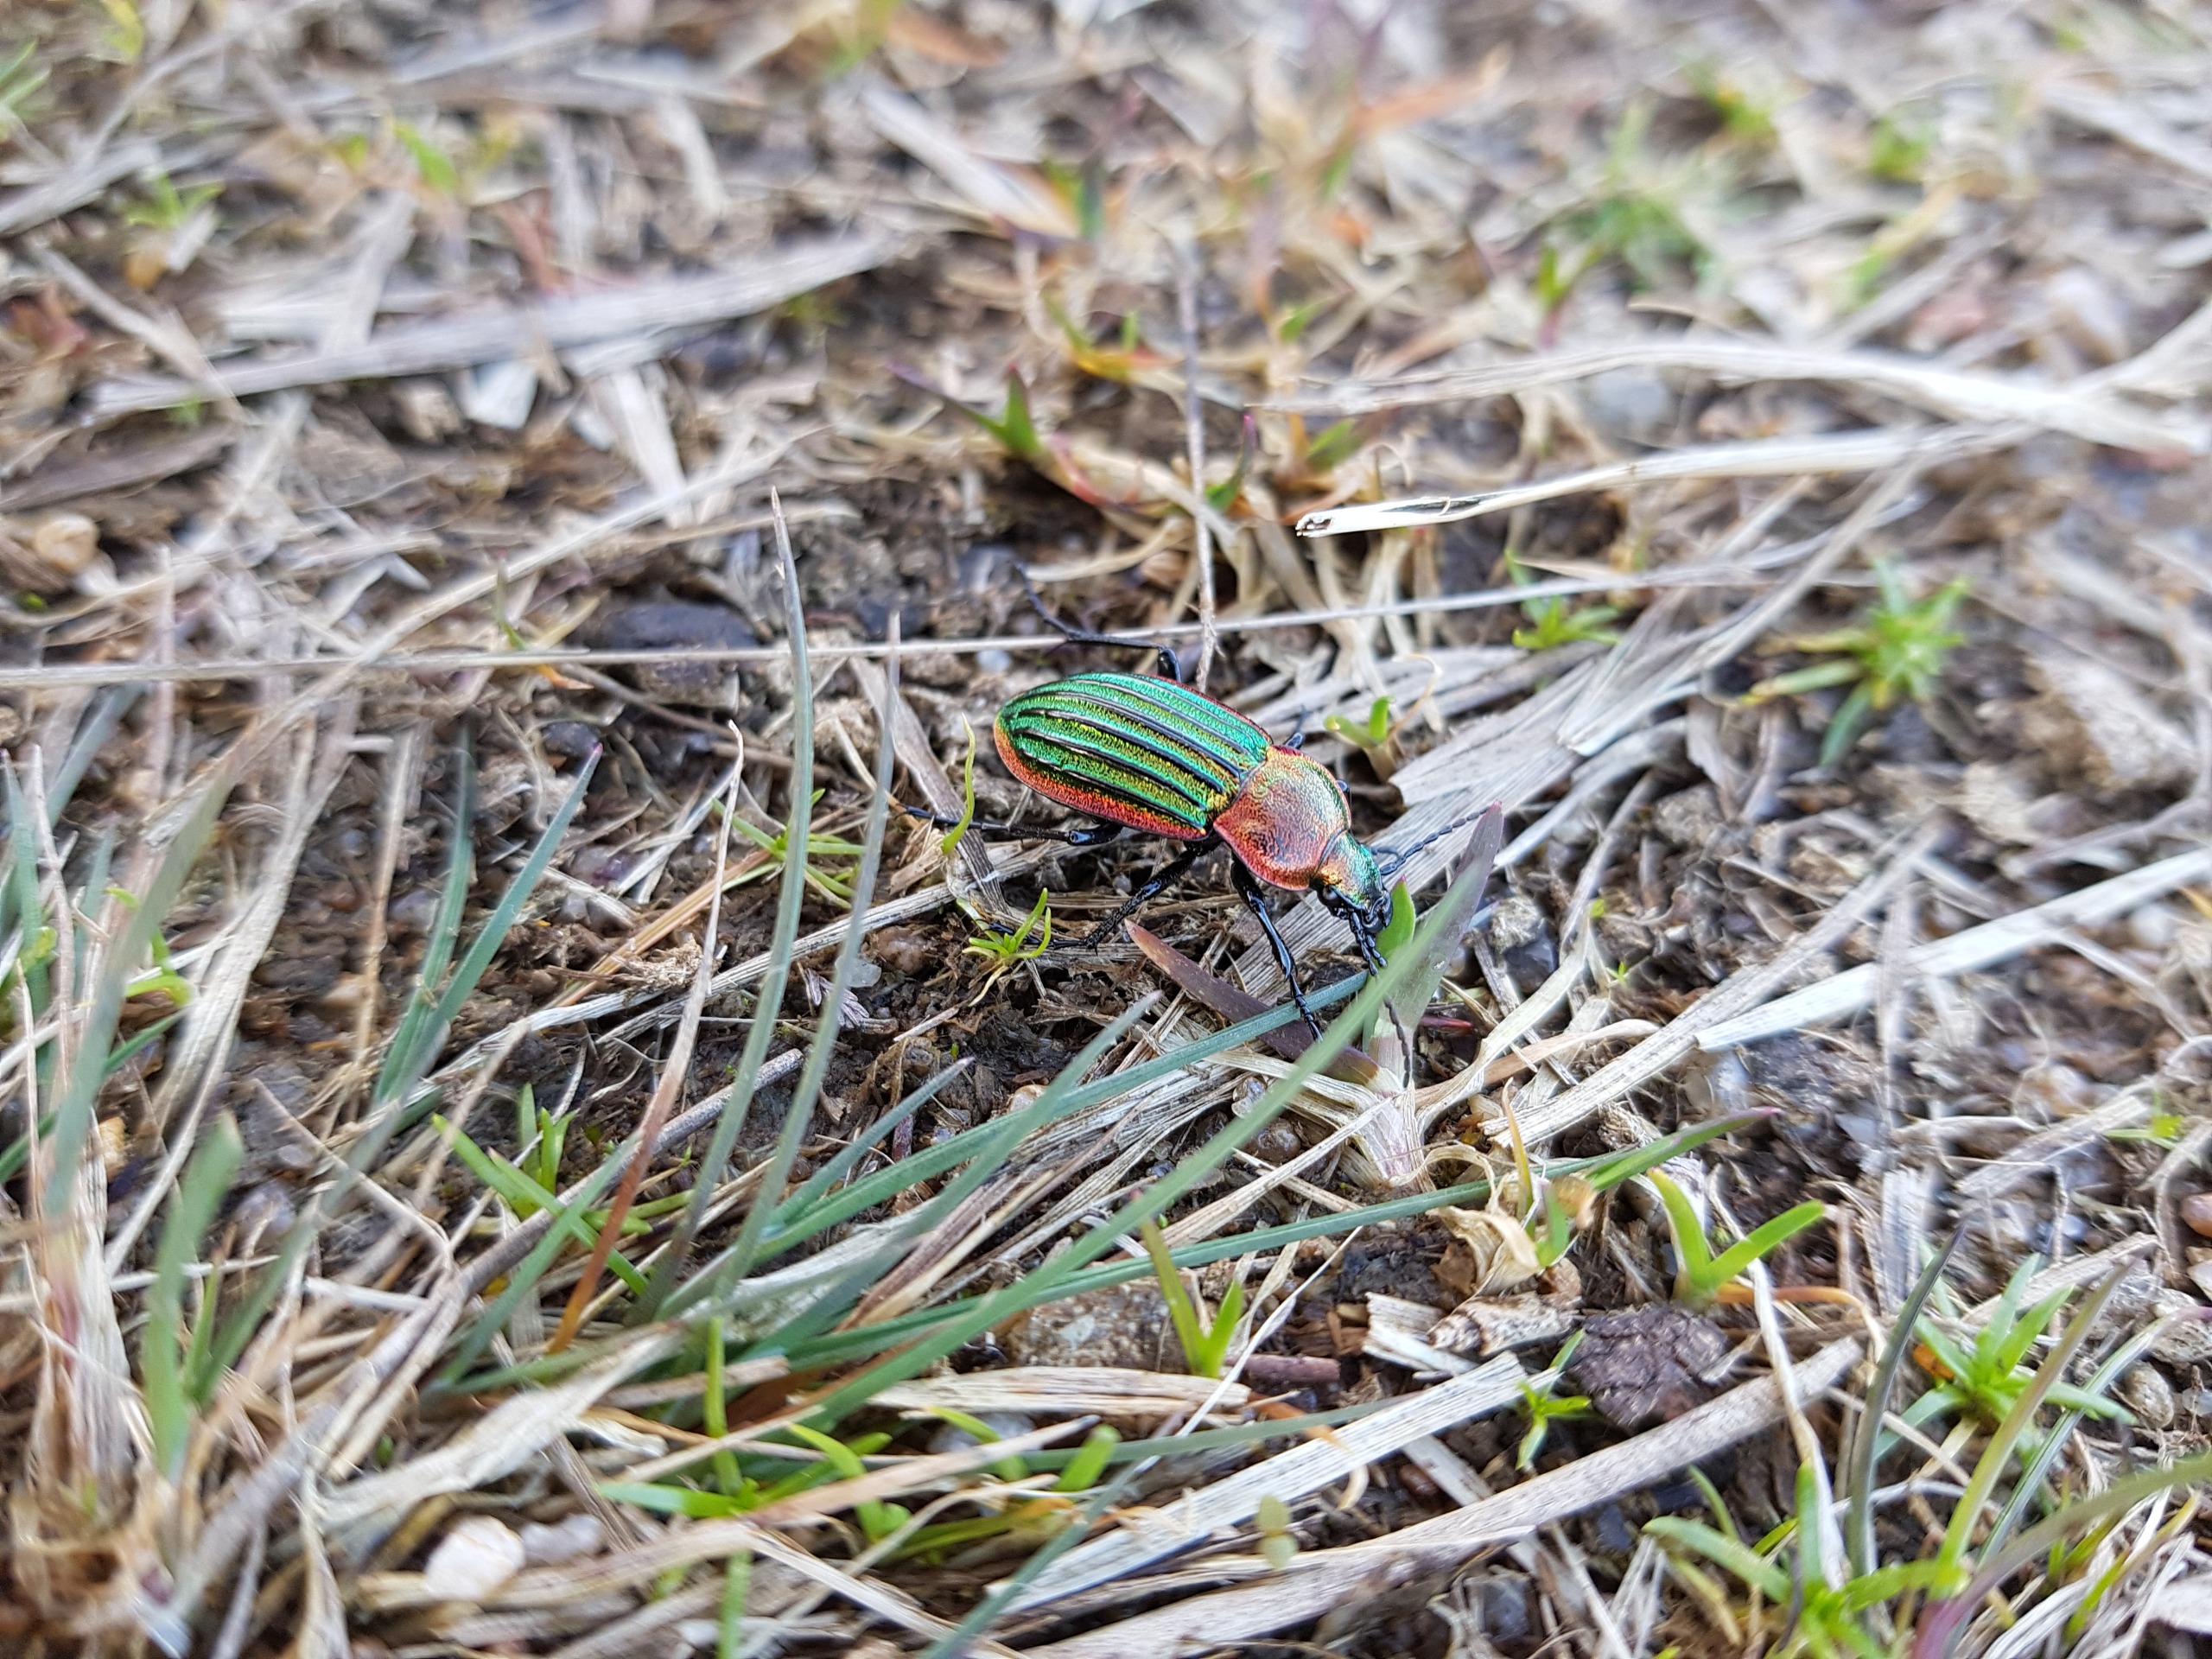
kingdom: Animalia
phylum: Arthropoda
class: Insecta
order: Coleoptera
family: Carabidae
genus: Carabus
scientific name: Carabus nitens
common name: Lille guldløber
